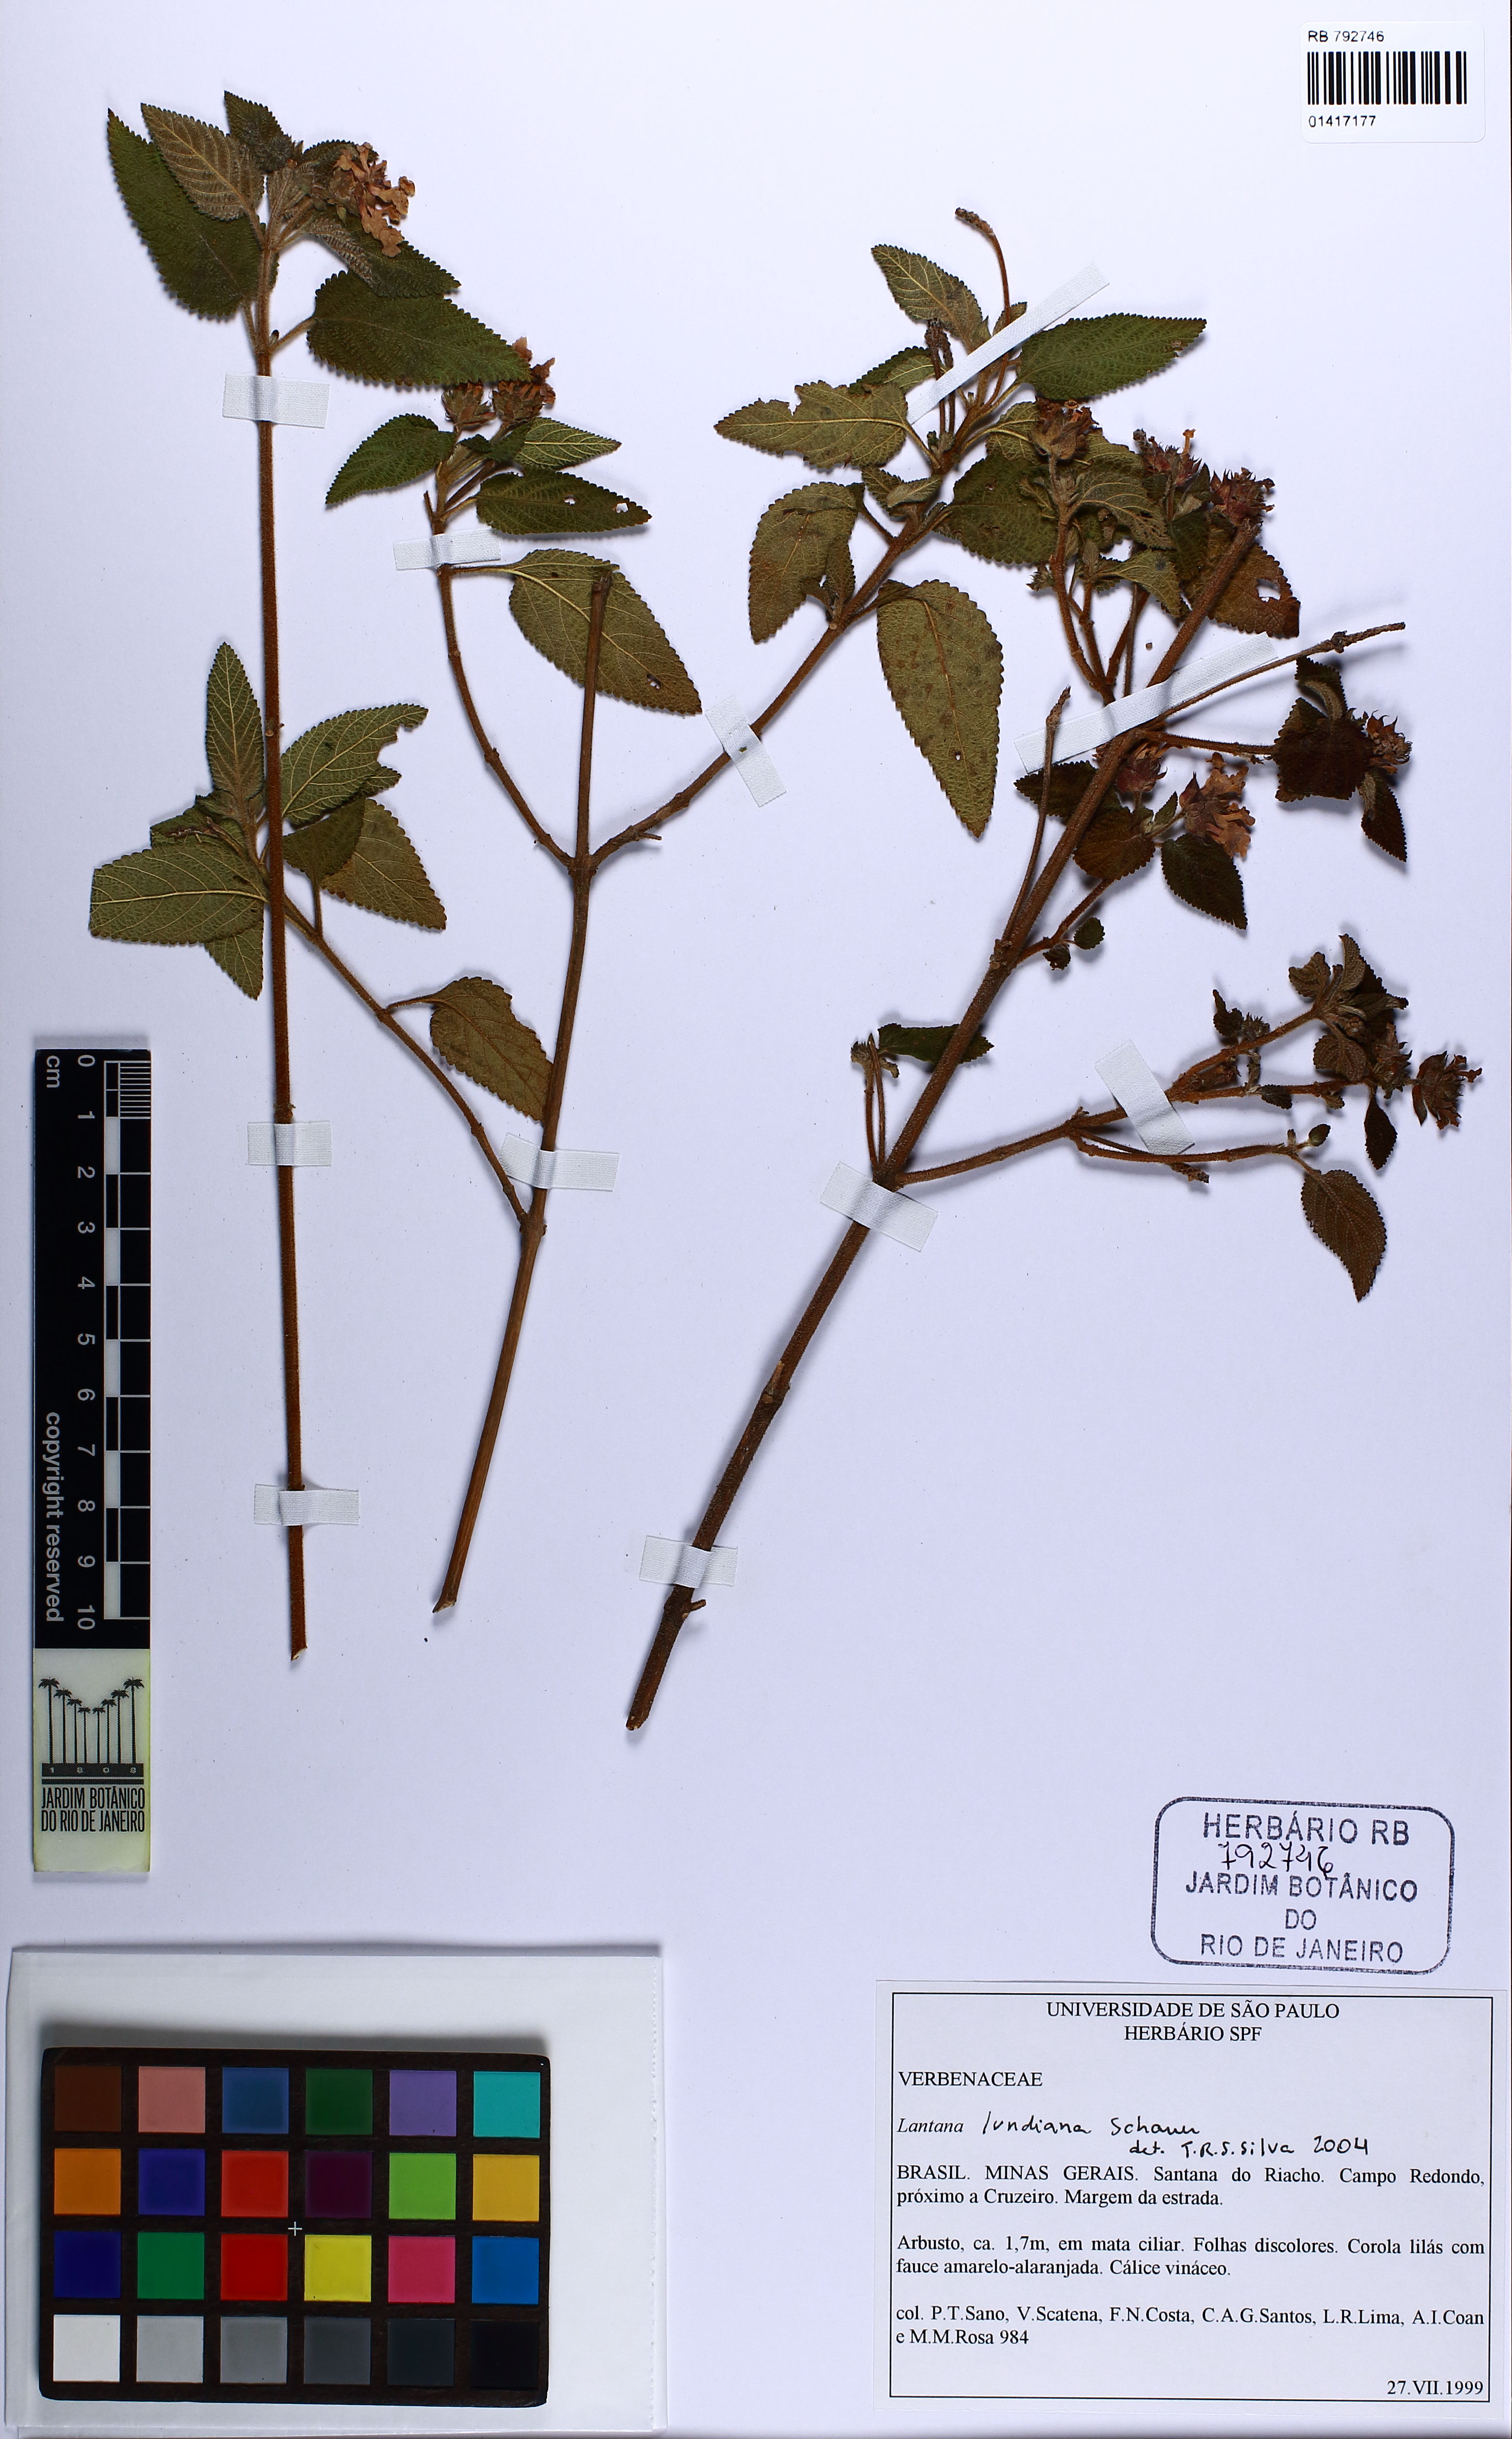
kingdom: Plantae
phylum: Tracheophyta
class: Magnoliopsida
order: Lamiales
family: Verbenaceae
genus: Lantana
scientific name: Lantana lundiana
